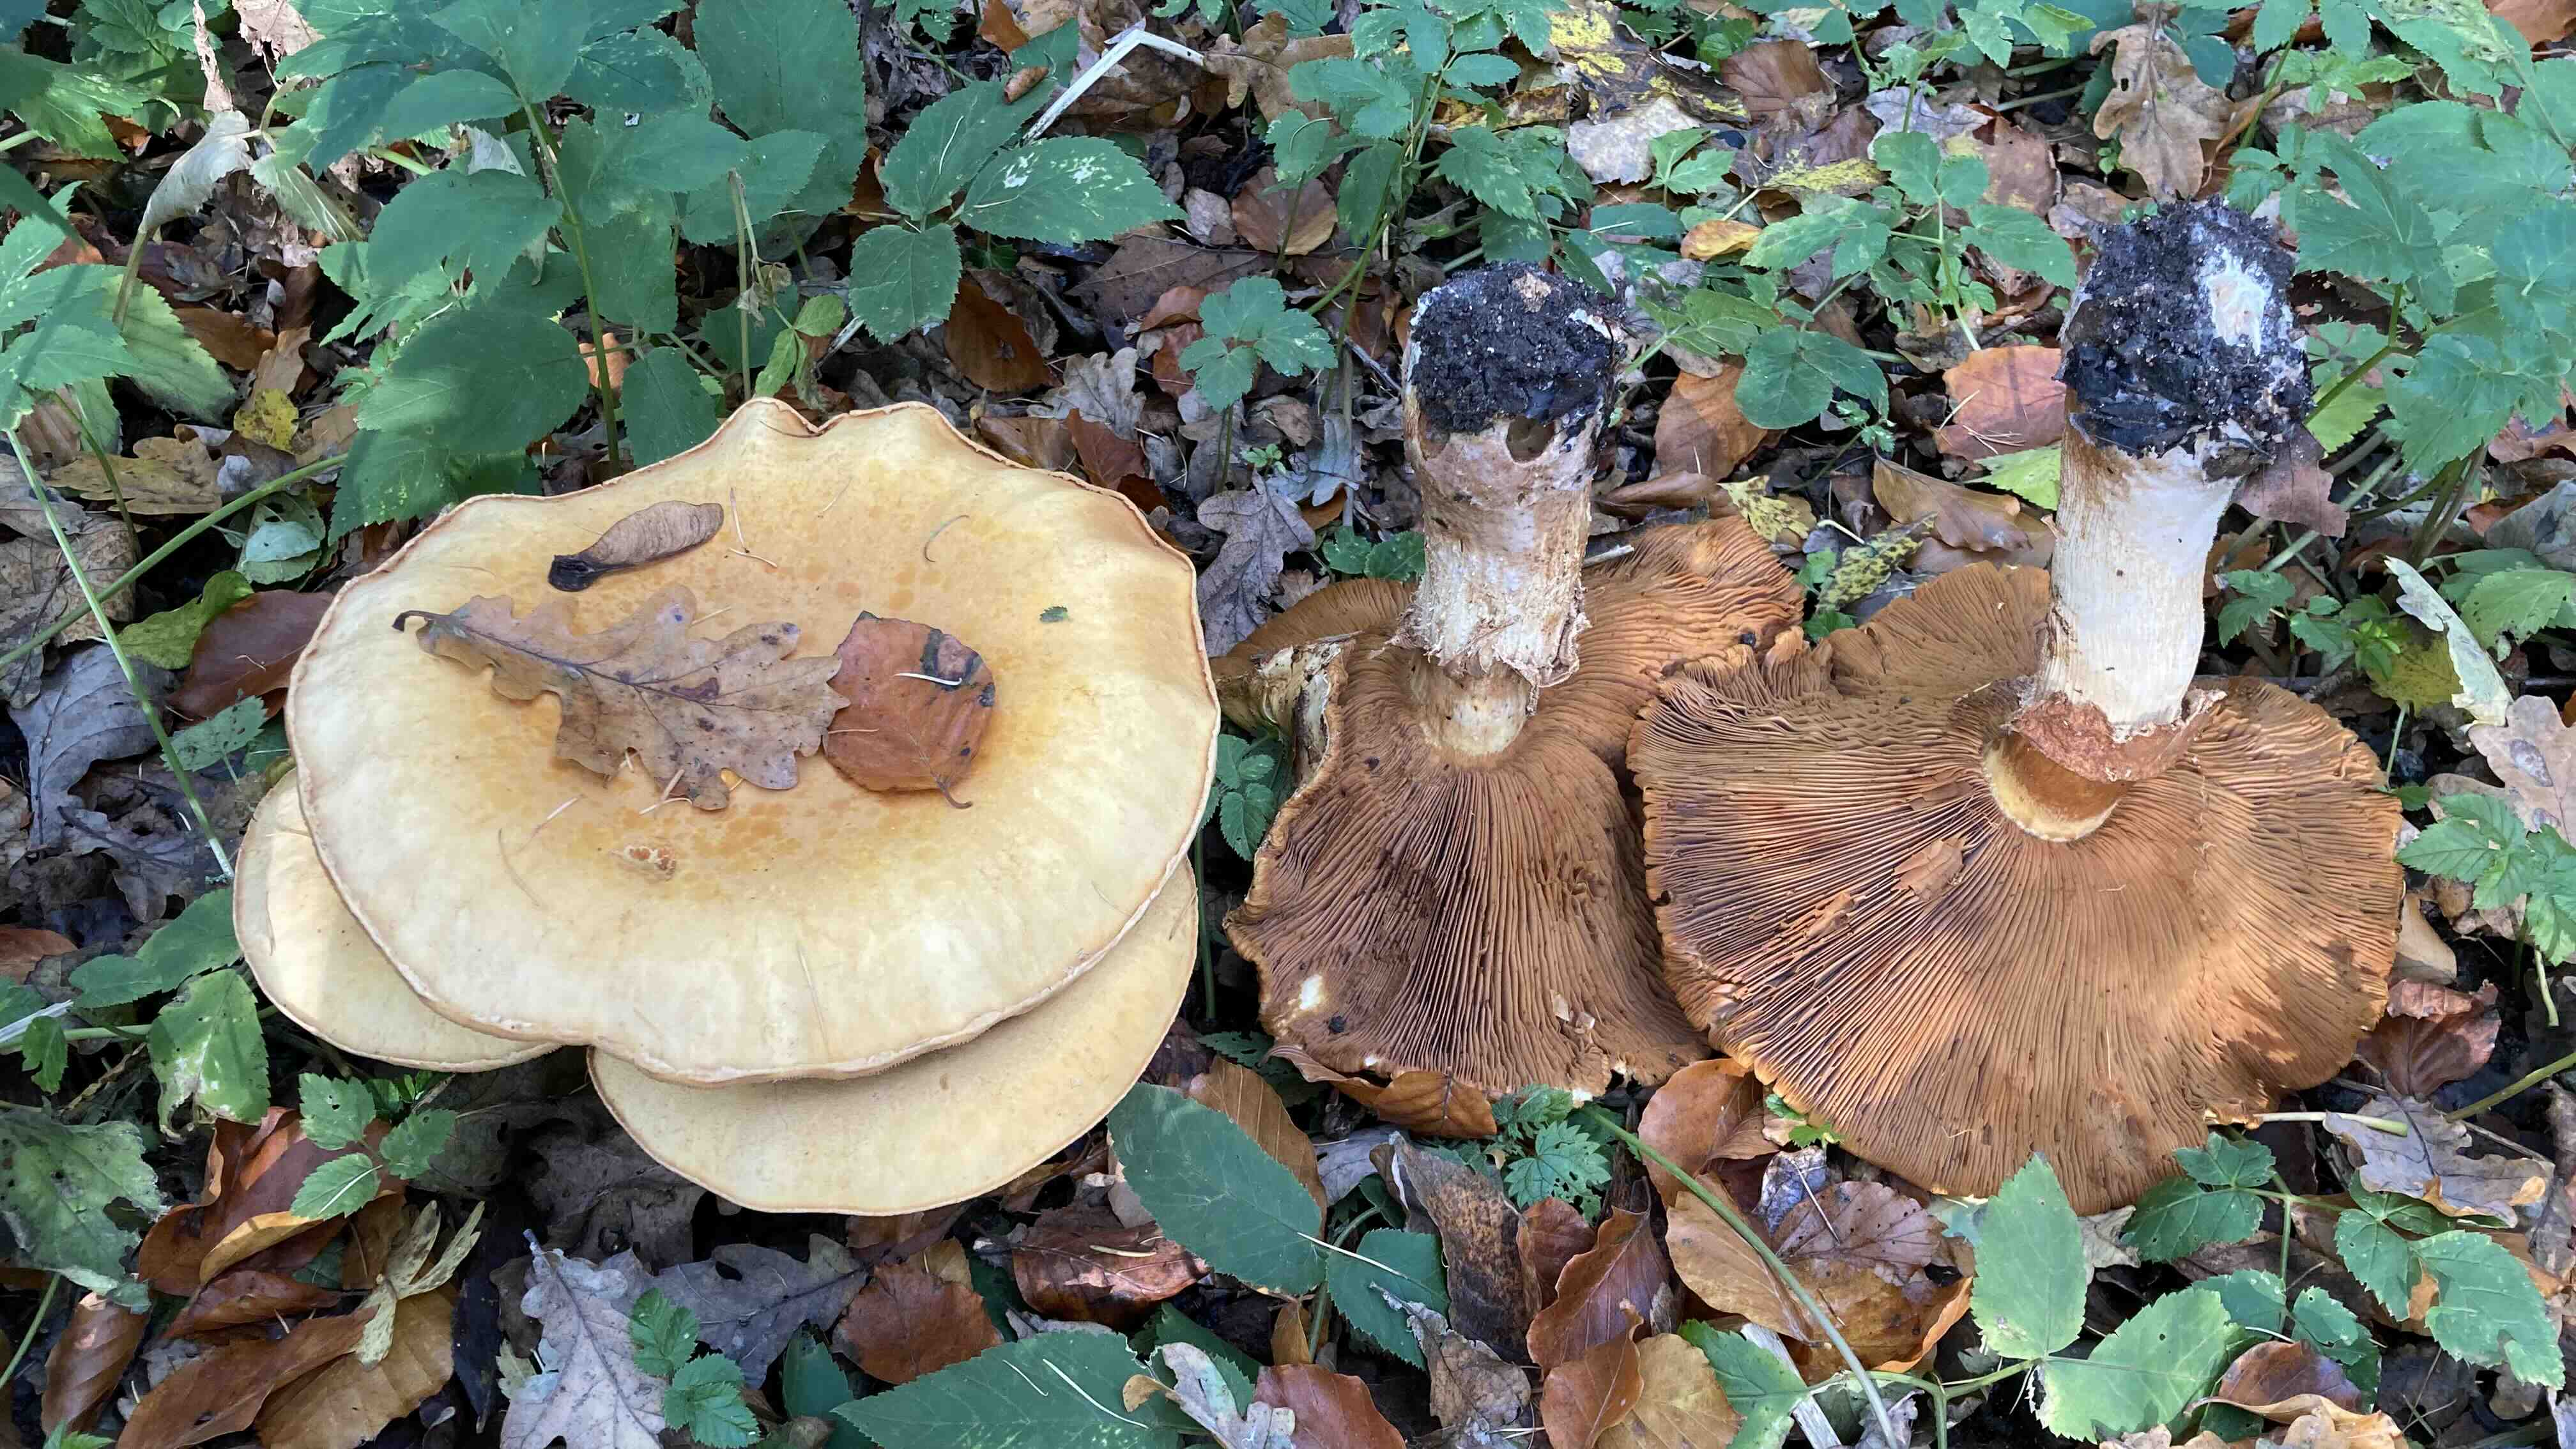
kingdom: Fungi
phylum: Basidiomycota
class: Agaricomycetes
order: Agaricales
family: Tricholomataceae
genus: Phaeolepiota
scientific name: Phaeolepiota aurea
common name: gyldenhat
